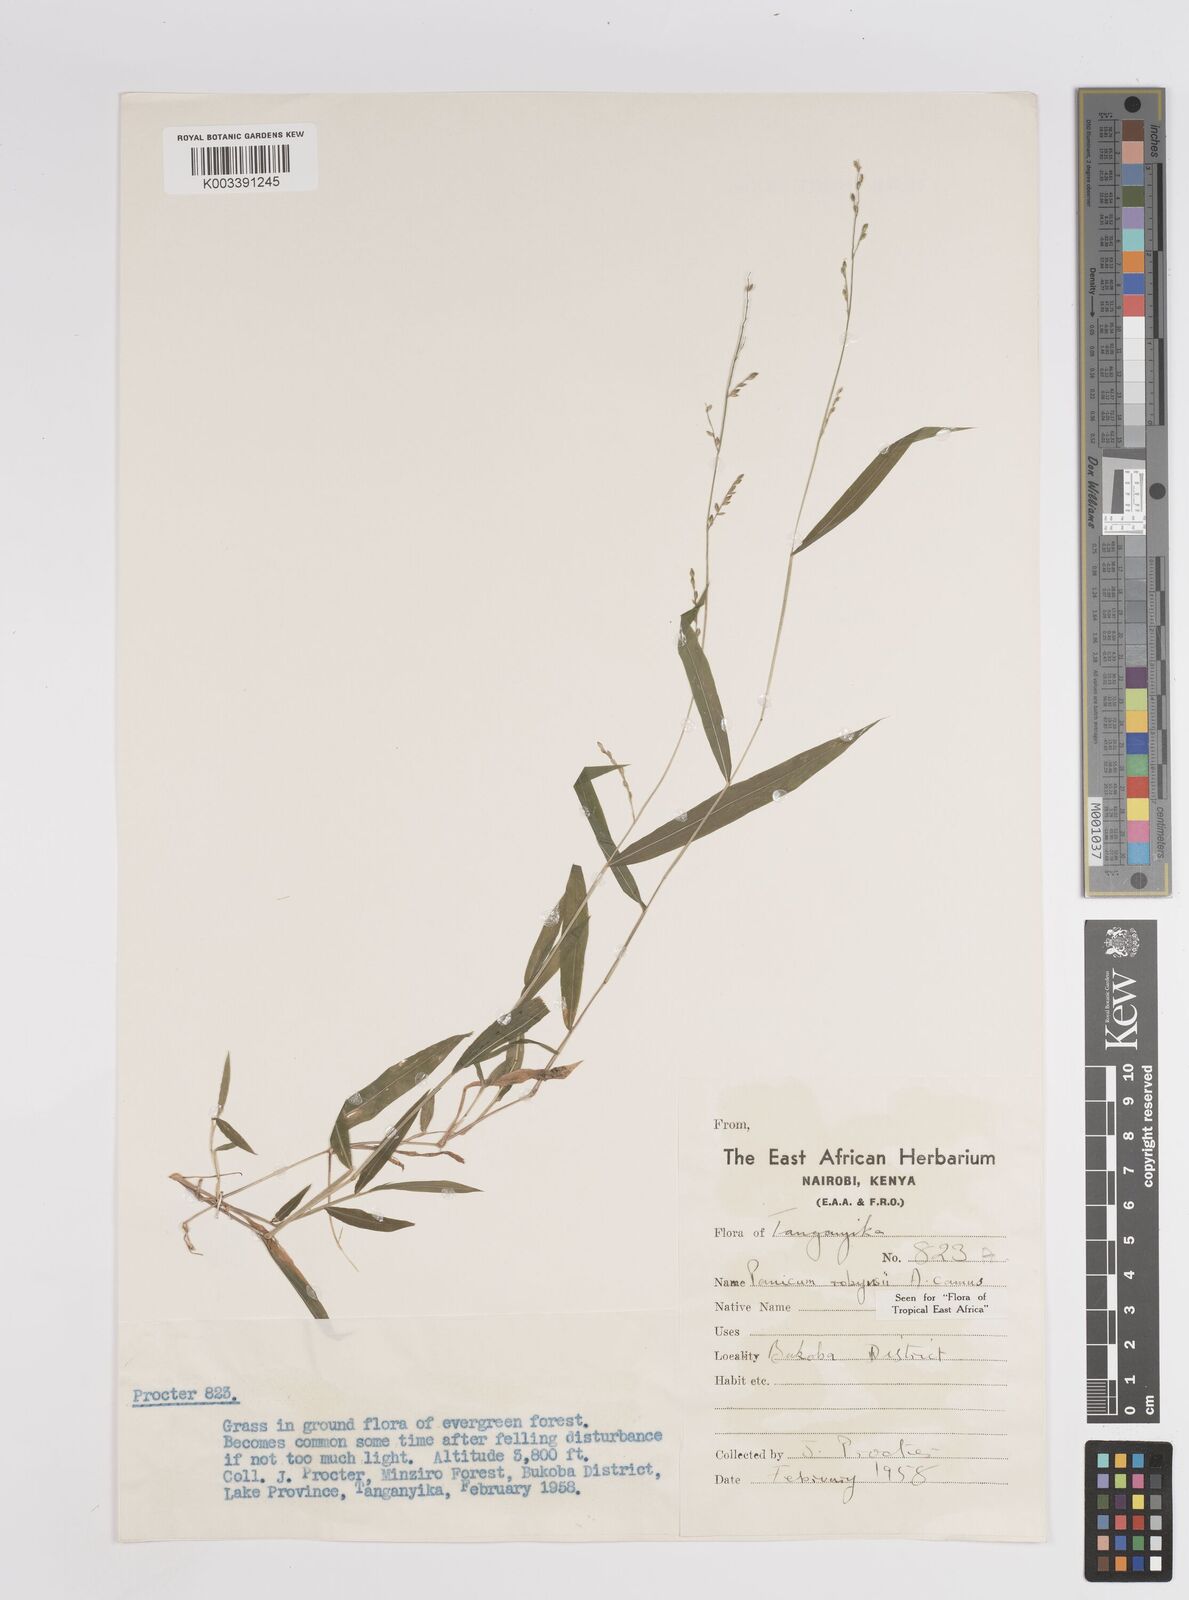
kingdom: Plantae
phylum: Tracheophyta
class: Liliopsida
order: Poales
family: Poaceae
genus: Panicum
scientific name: Panicum robynsii
